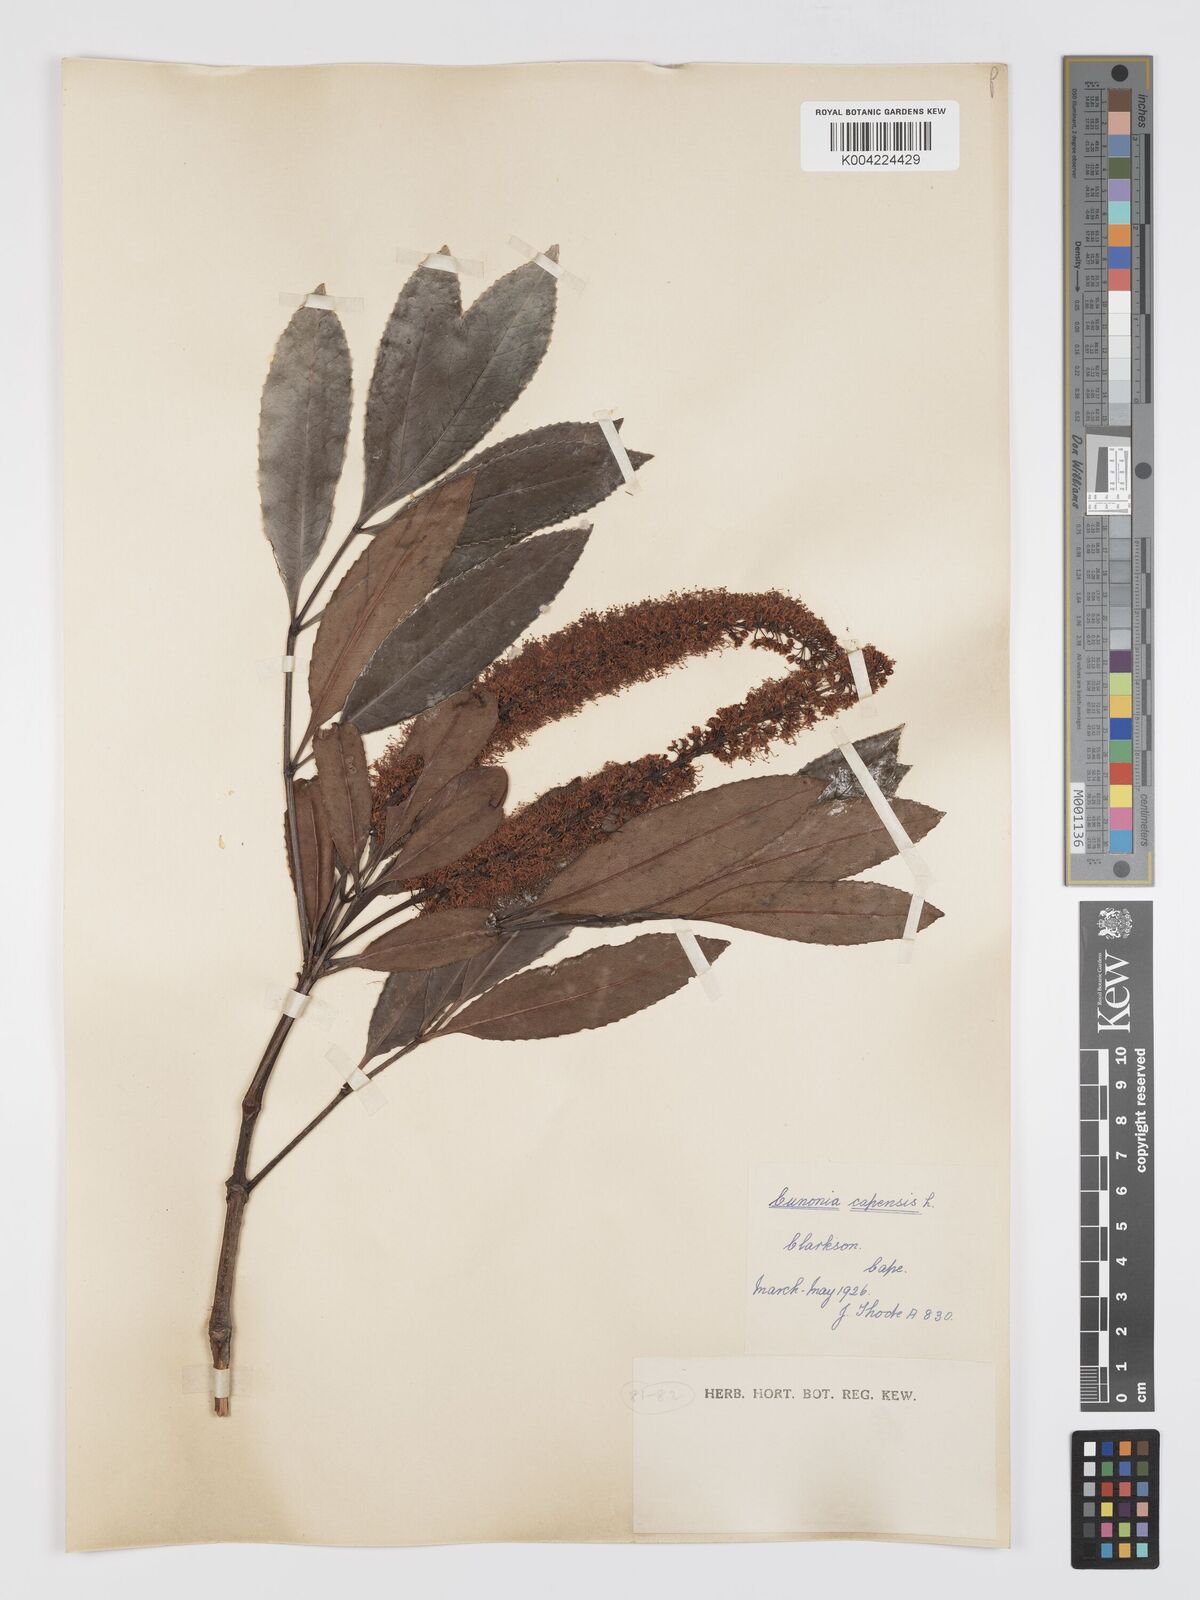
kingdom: Plantae
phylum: Tracheophyta
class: Magnoliopsida
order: Oxalidales
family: Cunoniaceae
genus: Cunonia
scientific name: Cunonia capensis
